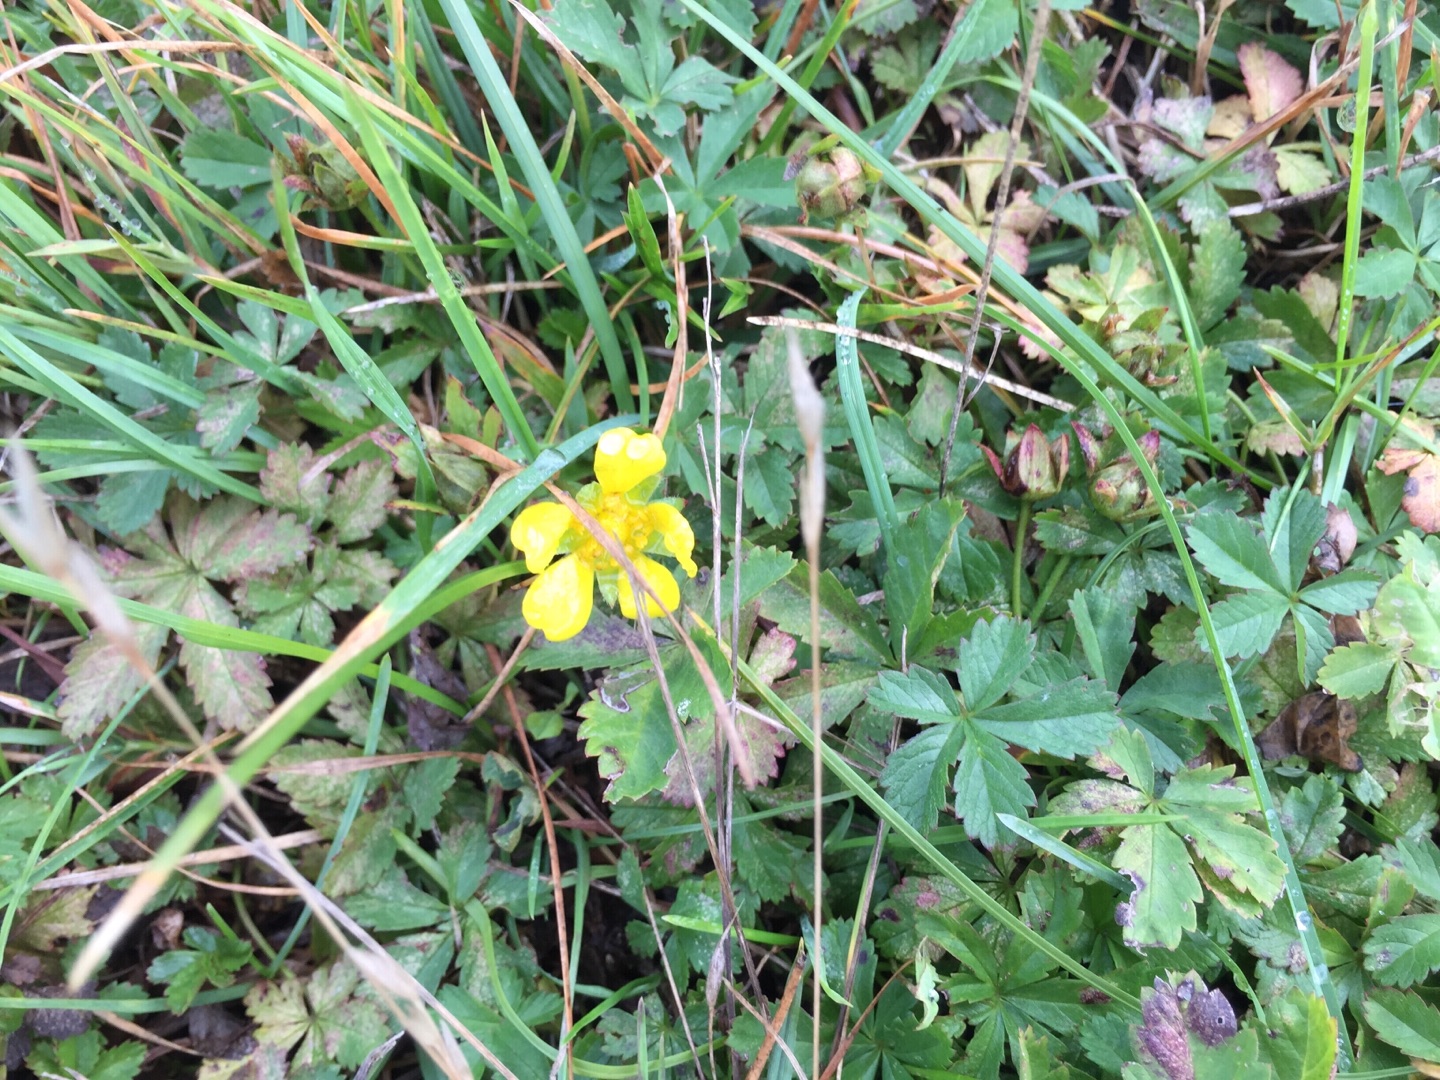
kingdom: Plantae
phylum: Tracheophyta
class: Magnoliopsida
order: Rosales
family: Rosaceae
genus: Potentilla
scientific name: Potentilla reptans
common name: Krybende potentil
